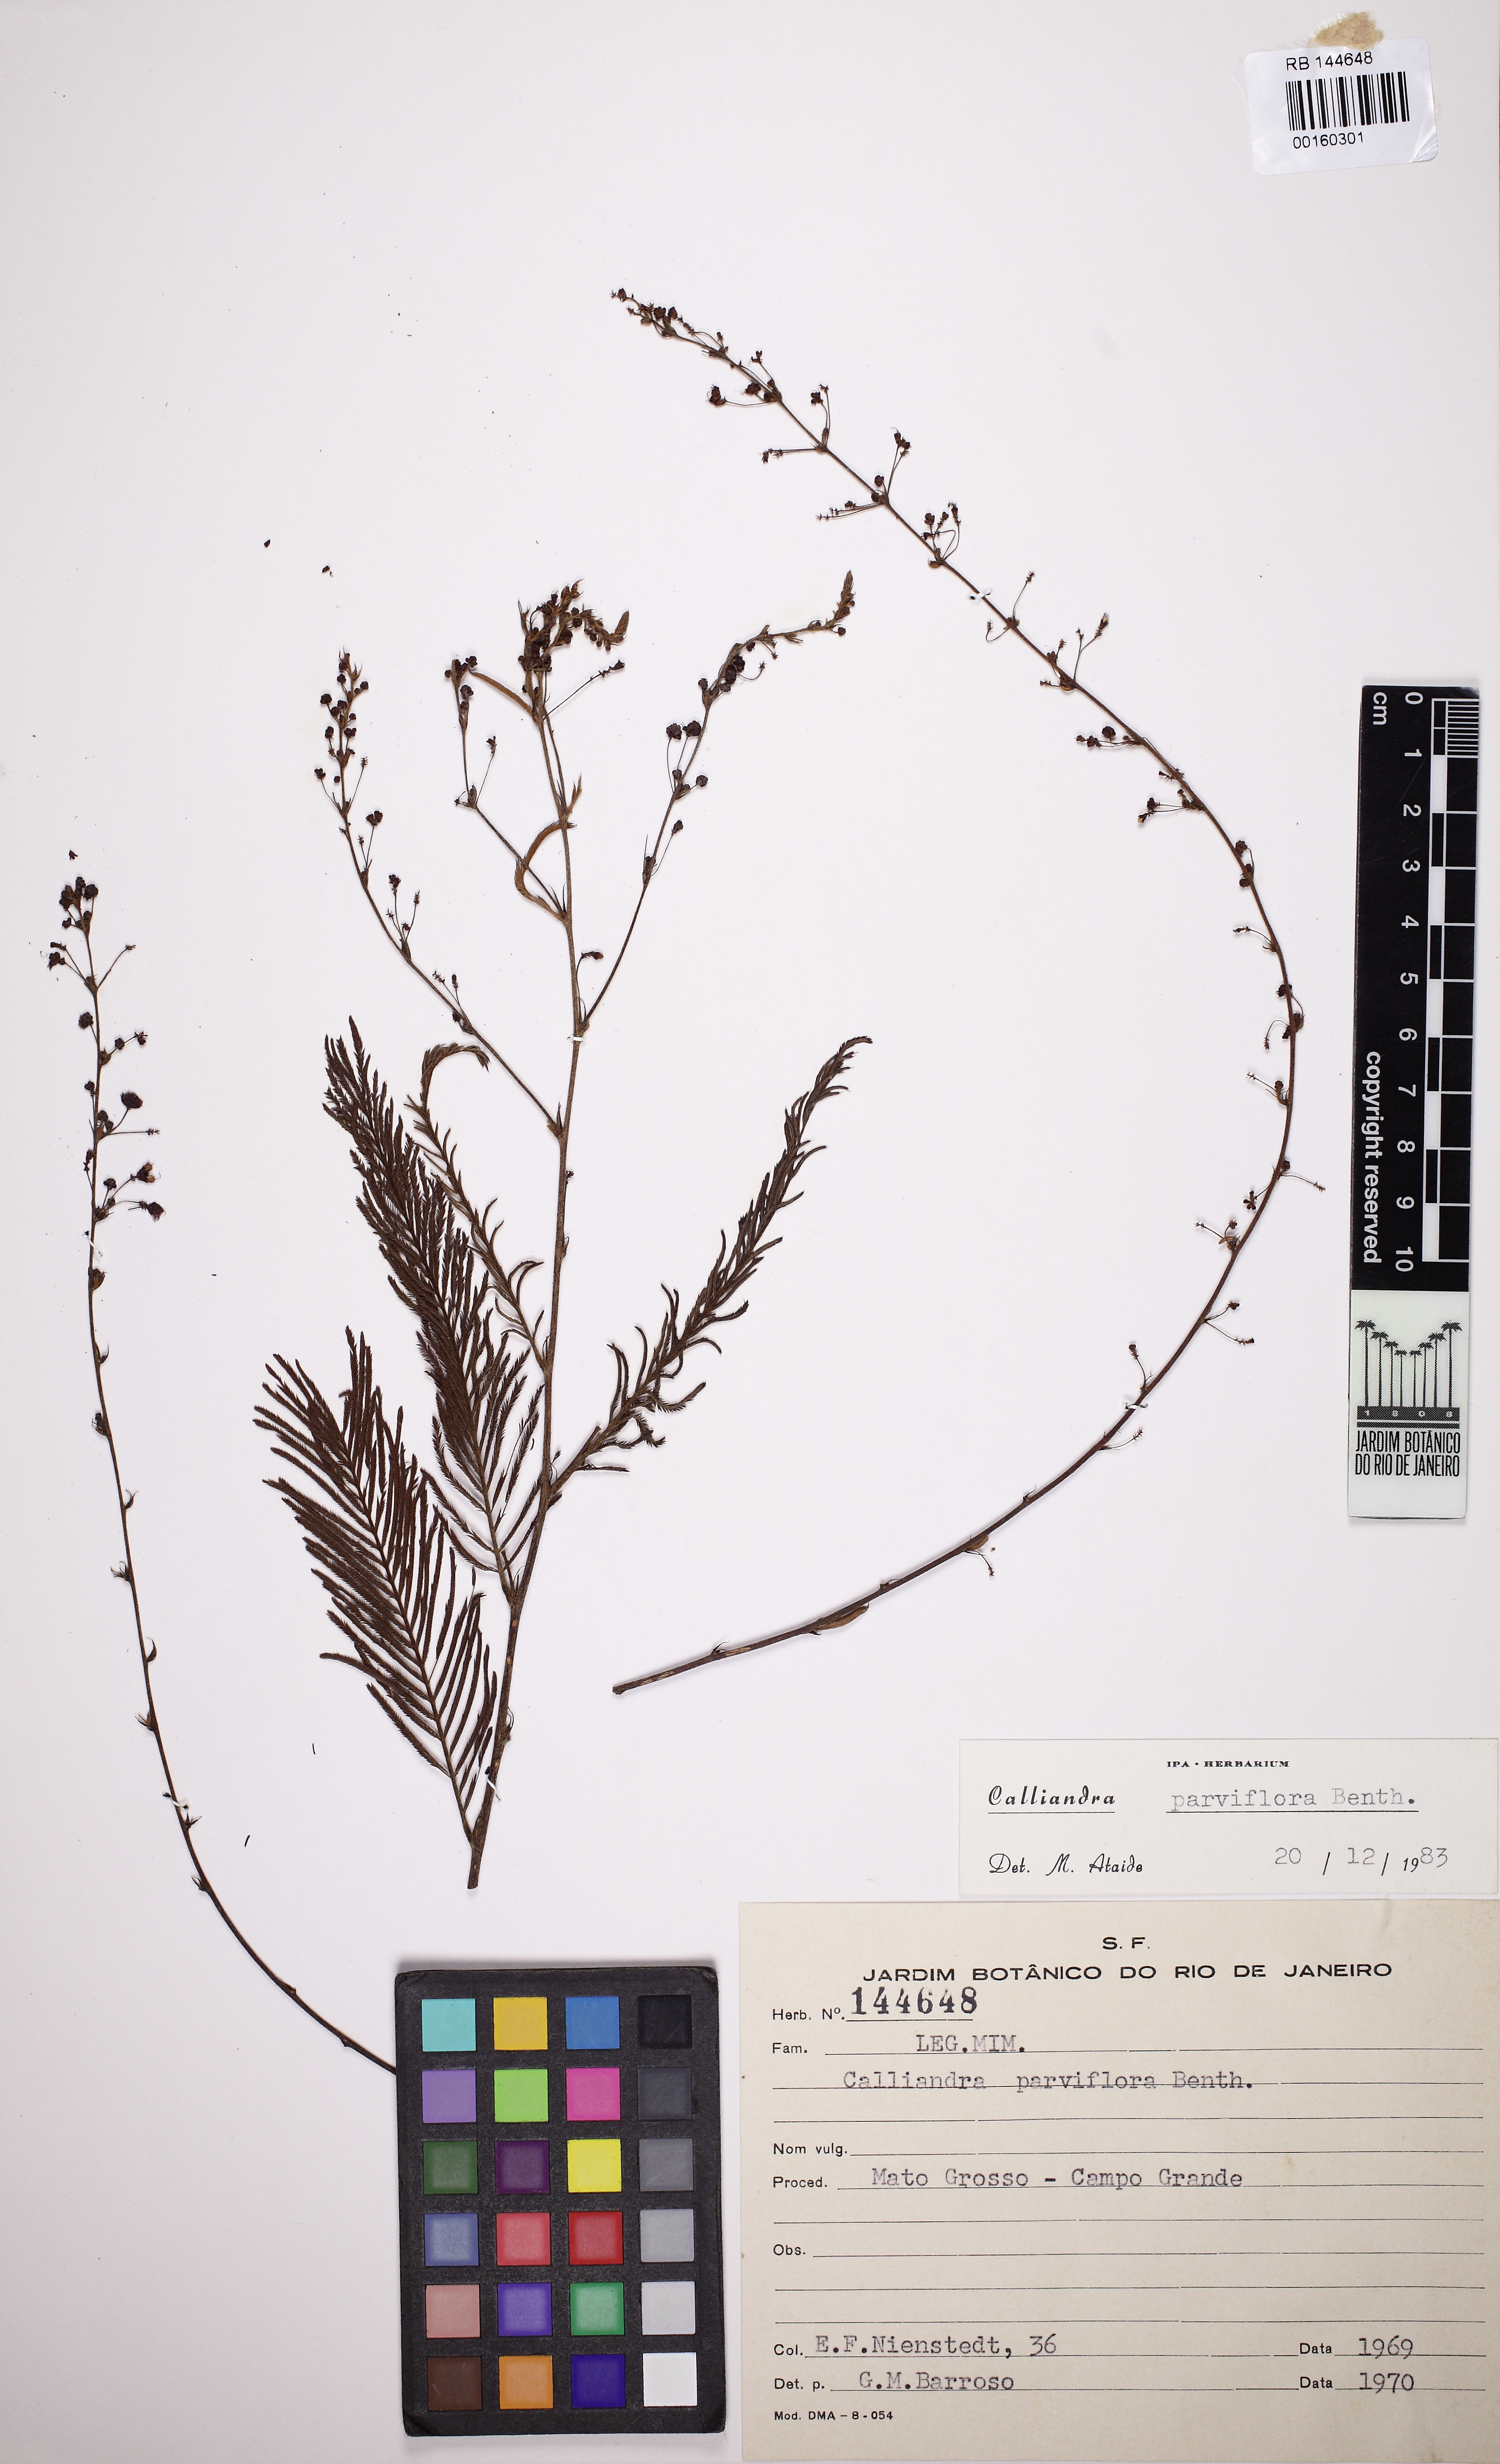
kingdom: Plantae
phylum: Tracheophyta
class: Magnoliopsida
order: Fabales
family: Fabaceae
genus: Calliandra
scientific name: Calliandra parviflora
